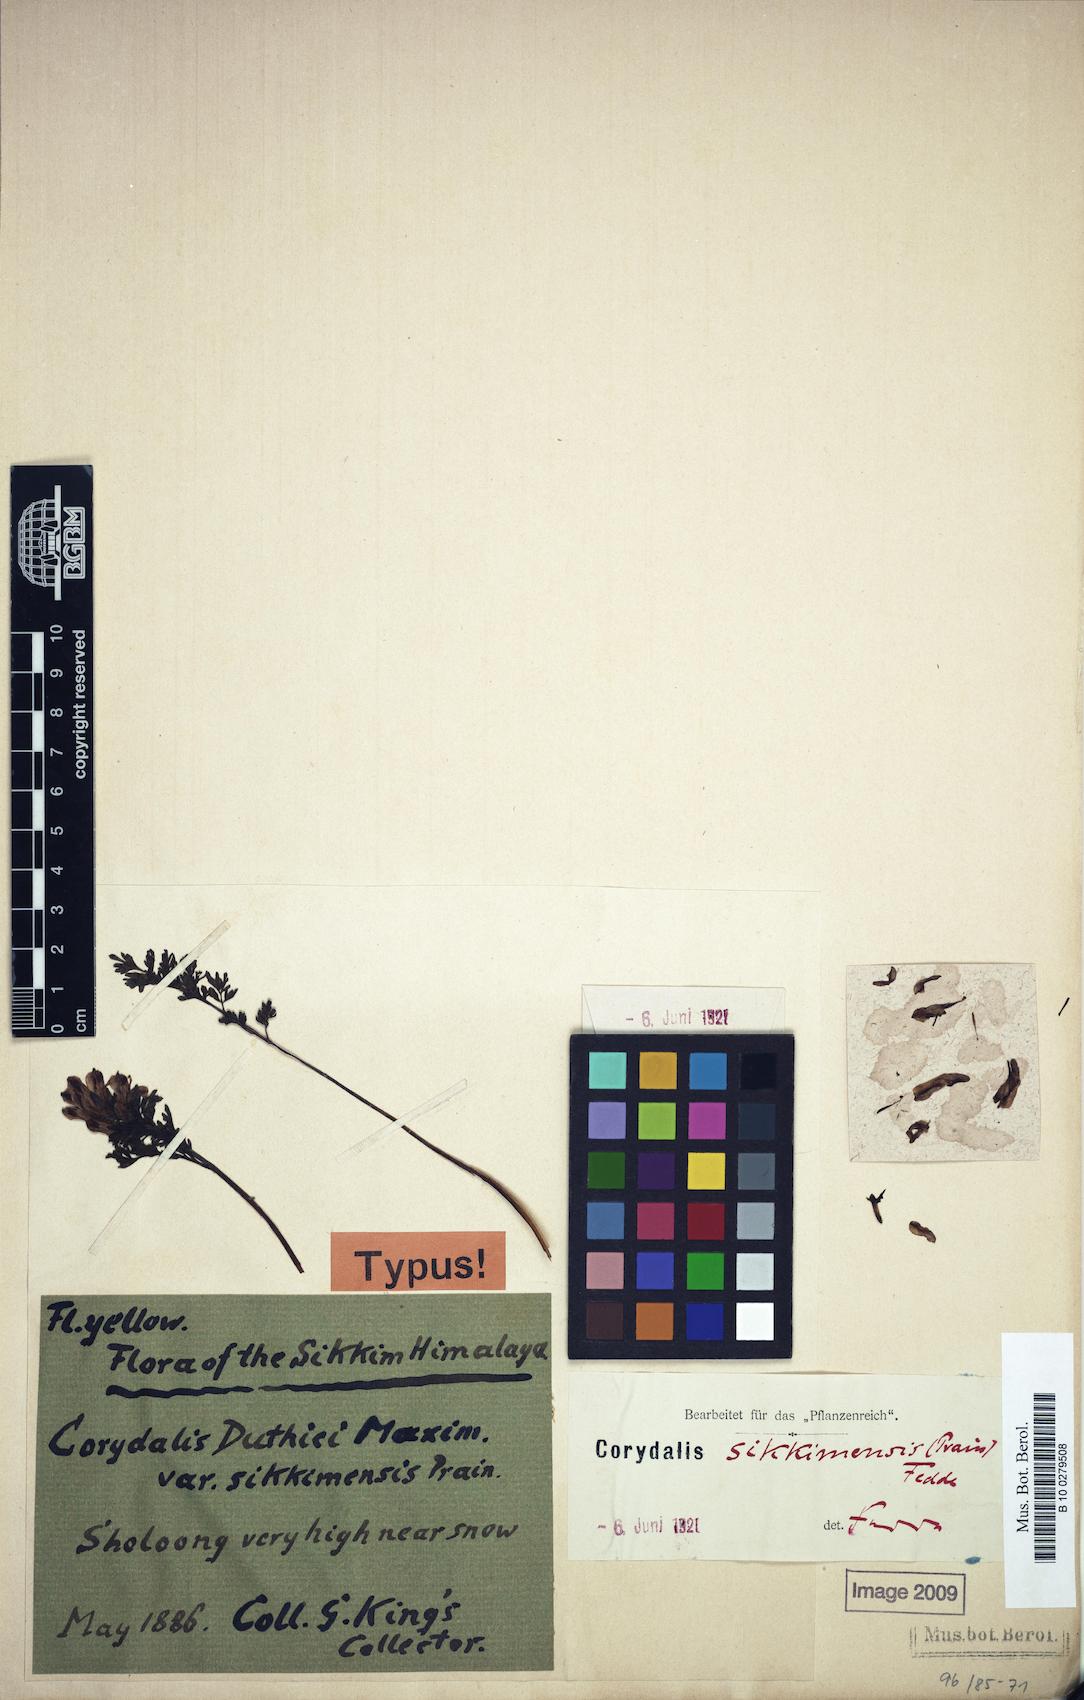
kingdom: Plantae
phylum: Tracheophyta
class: Magnoliopsida
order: Ranunculales
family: Papaveraceae
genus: Corydalis
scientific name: Corydalis sikkimensis
